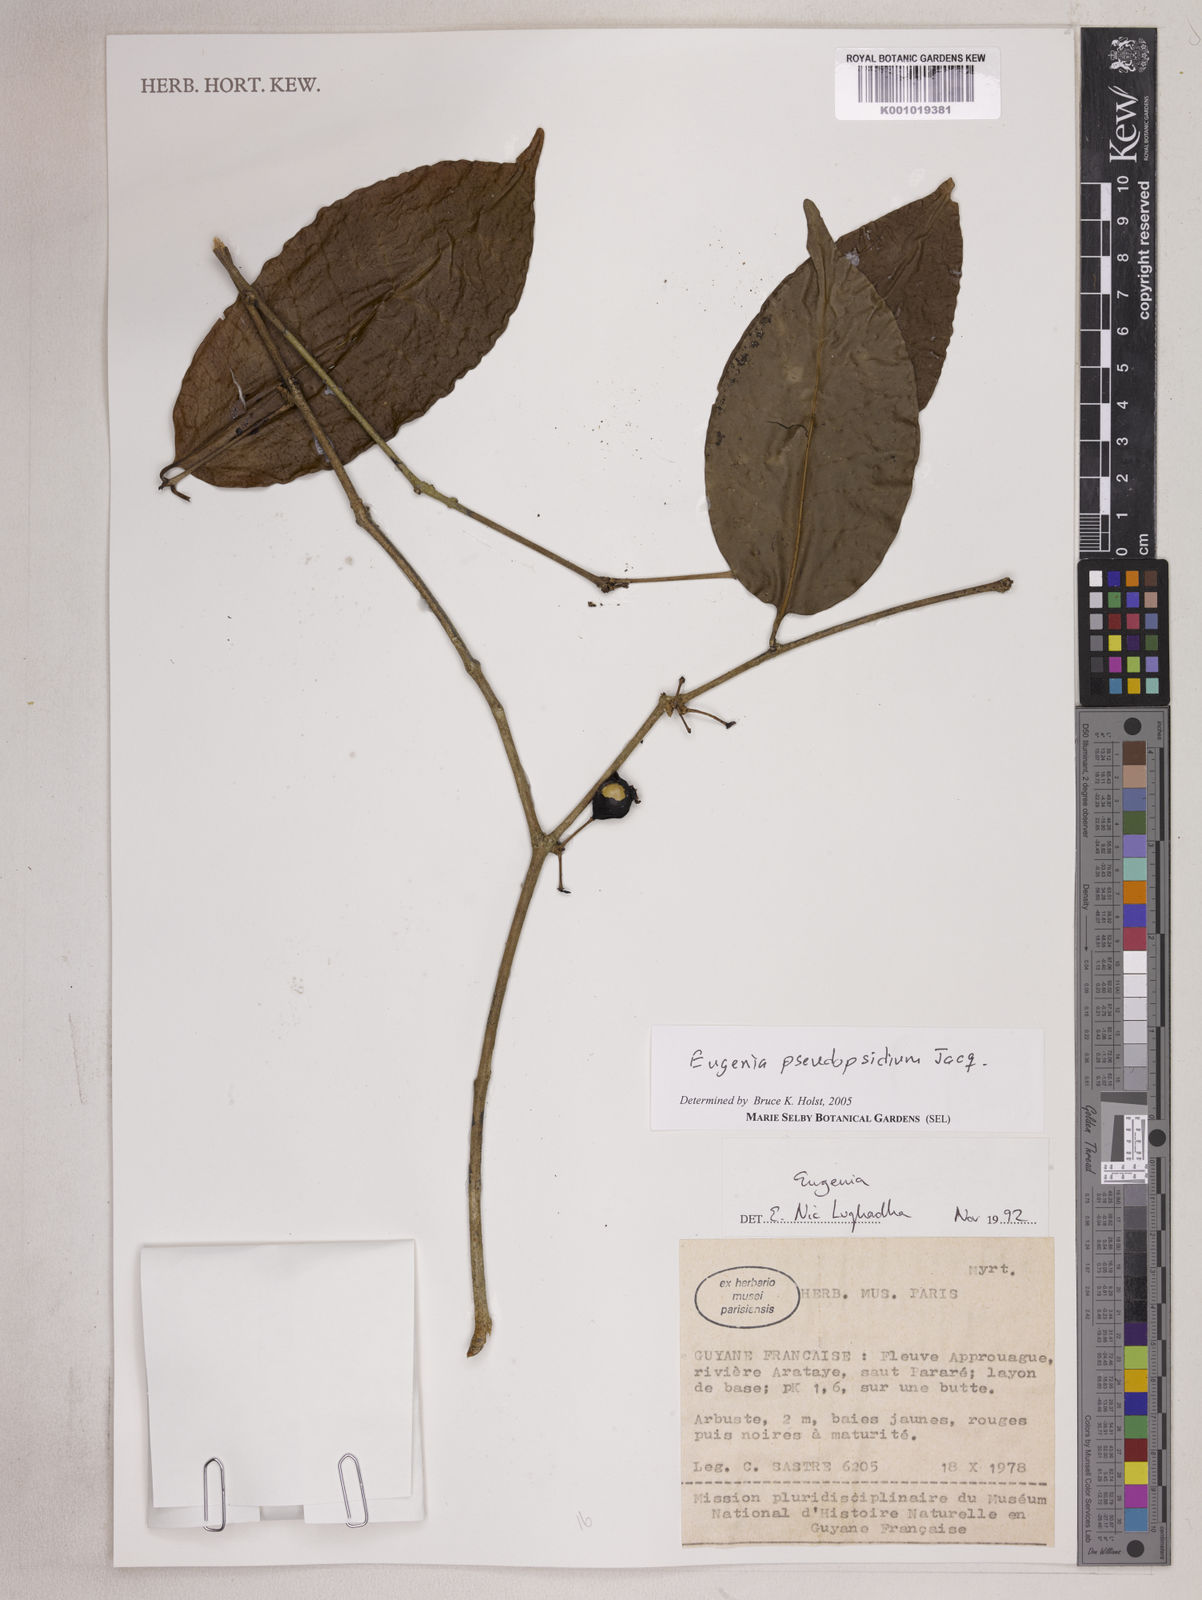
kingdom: Plantae
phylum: Tracheophyta
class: Magnoliopsida
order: Myrtales
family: Myrtaceae
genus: Eugenia
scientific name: Eugenia pseudopsidium
